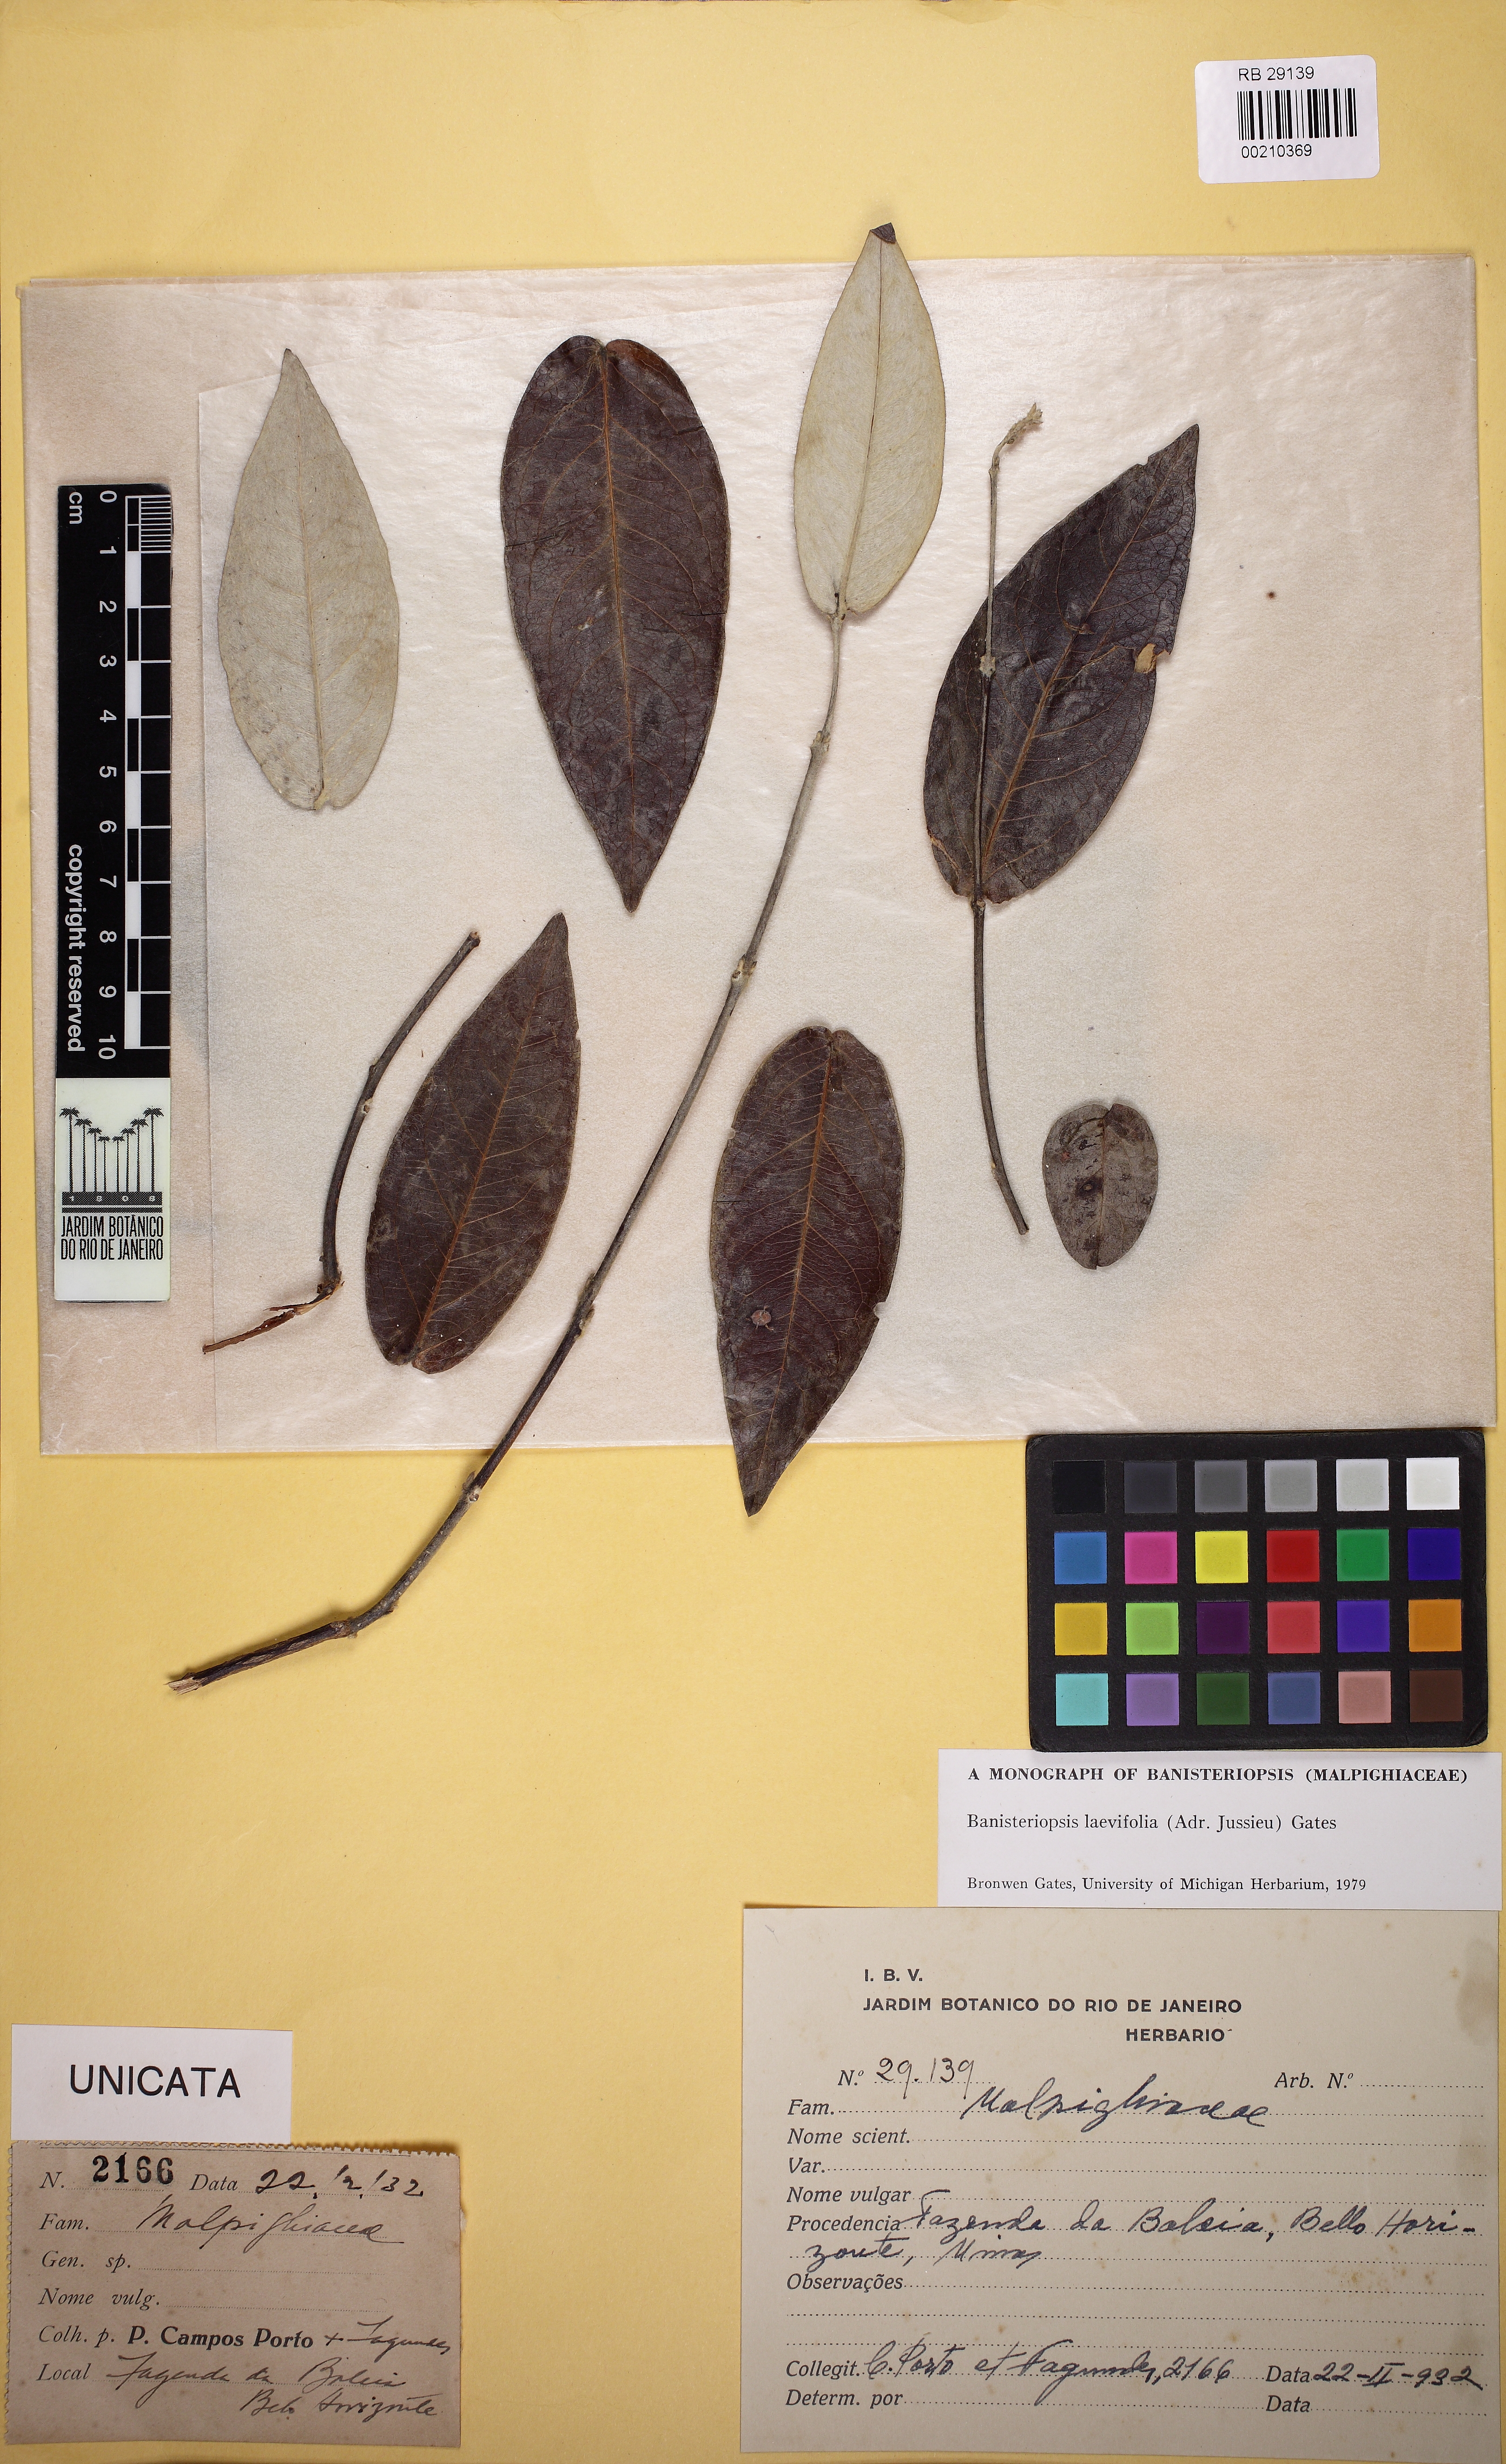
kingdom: Plantae
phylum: Tracheophyta
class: Magnoliopsida
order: Malpighiales
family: Malpighiaceae
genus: Banisteriopsis
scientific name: Banisteriopsis laevifolia
